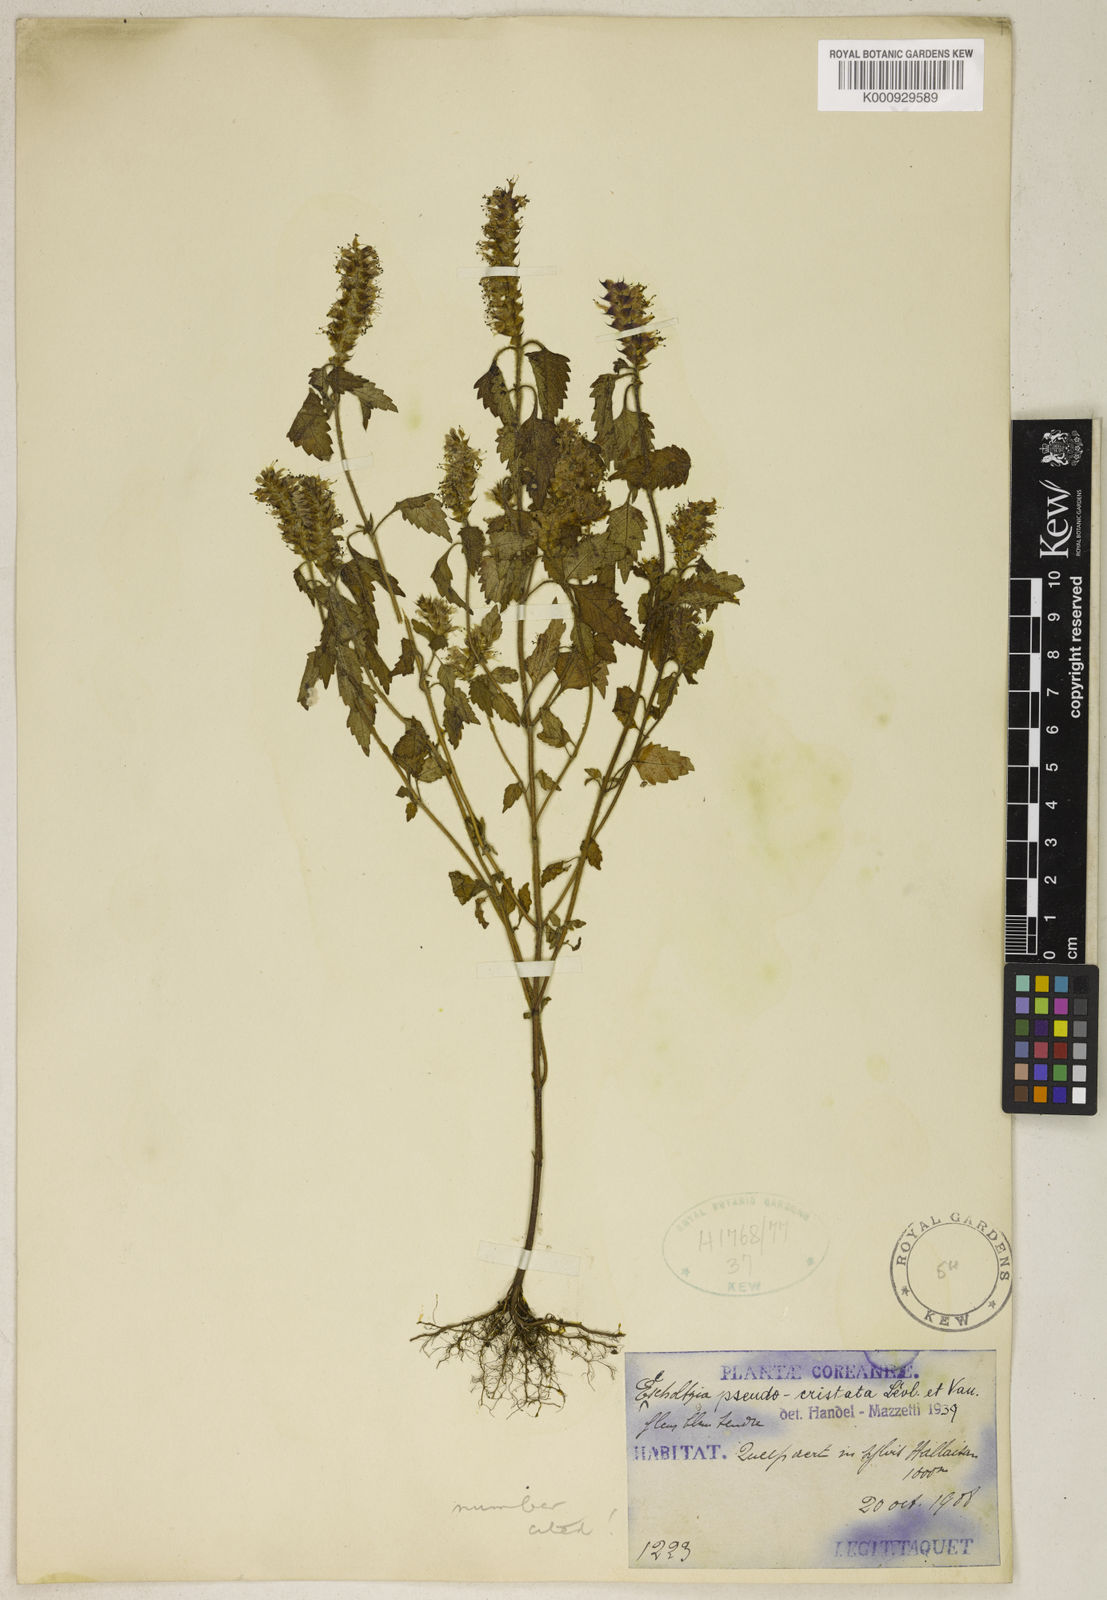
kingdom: Plantae
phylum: Tracheophyta
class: Magnoliopsida
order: Lamiales
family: Lamiaceae
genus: Elsholtzia
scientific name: Elsholtzia
